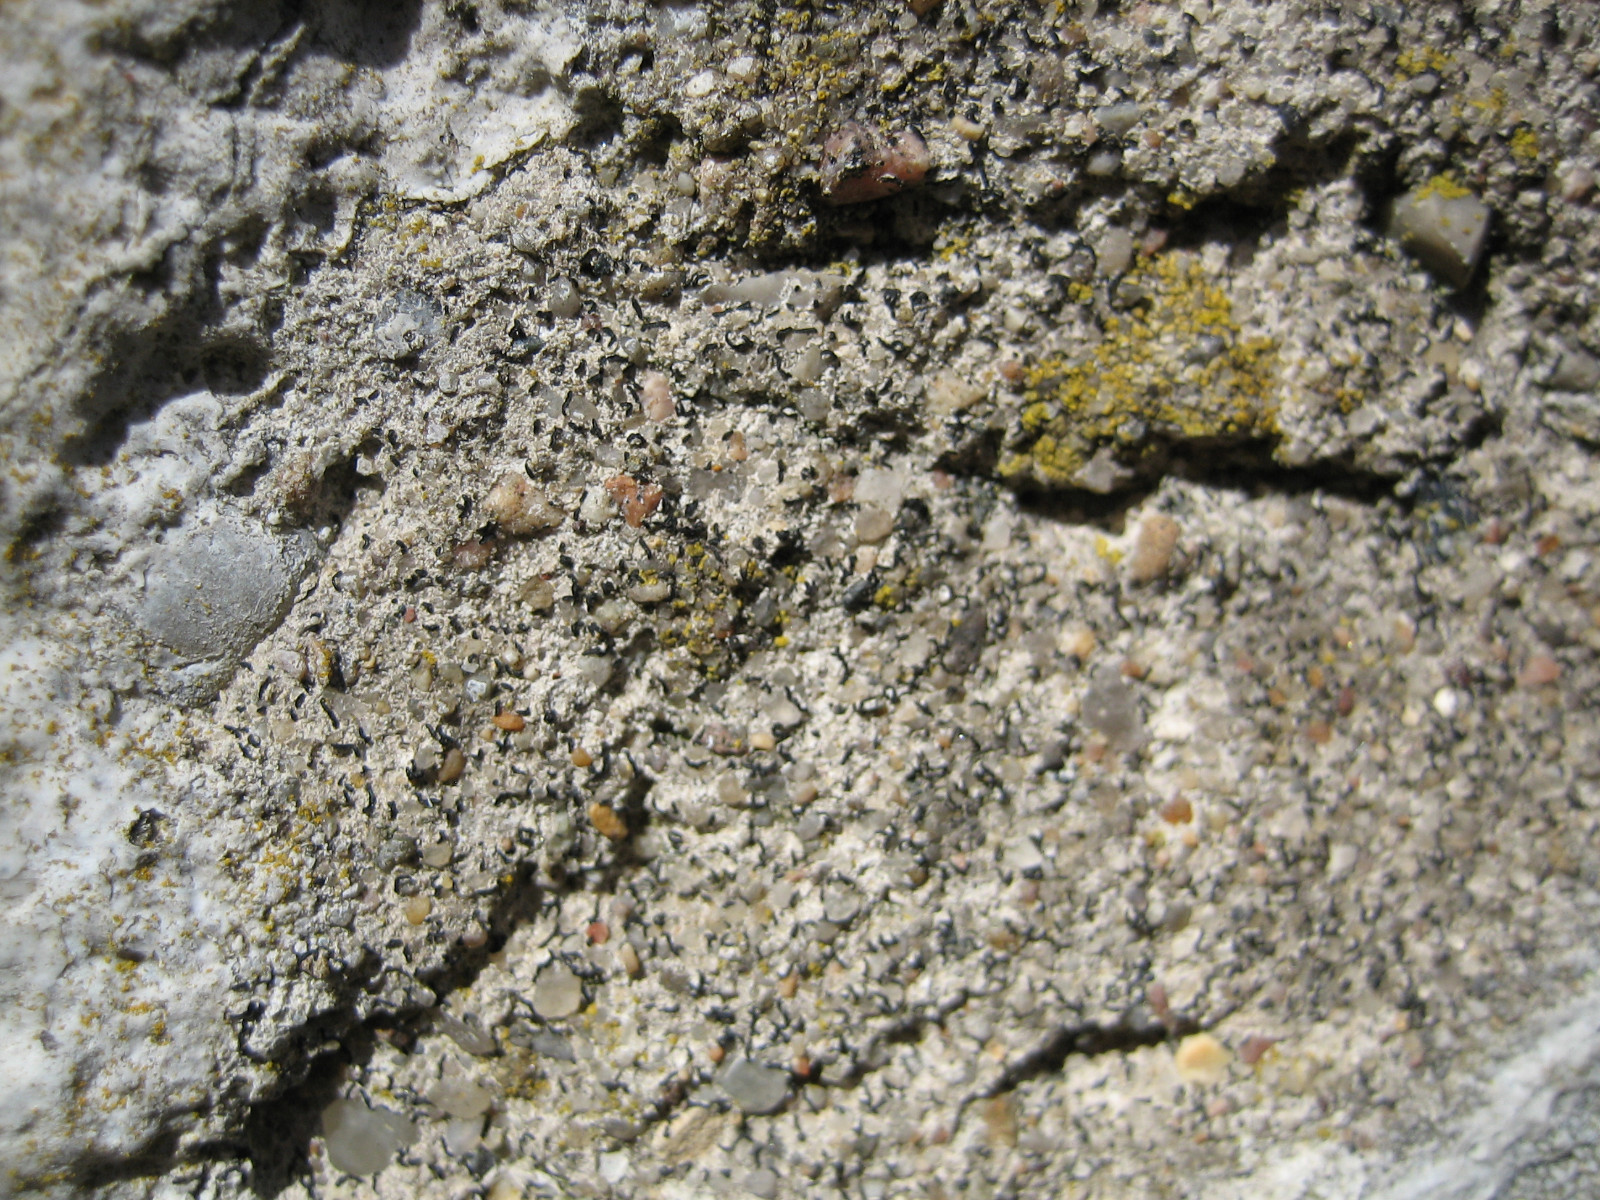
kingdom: Fungi
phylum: Ascomycota
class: Arthoniomycetes
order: Arthoniales
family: Arthoniaceae
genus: Arthonia
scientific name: Arthonia calcarea
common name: kalk-bogstavlav
